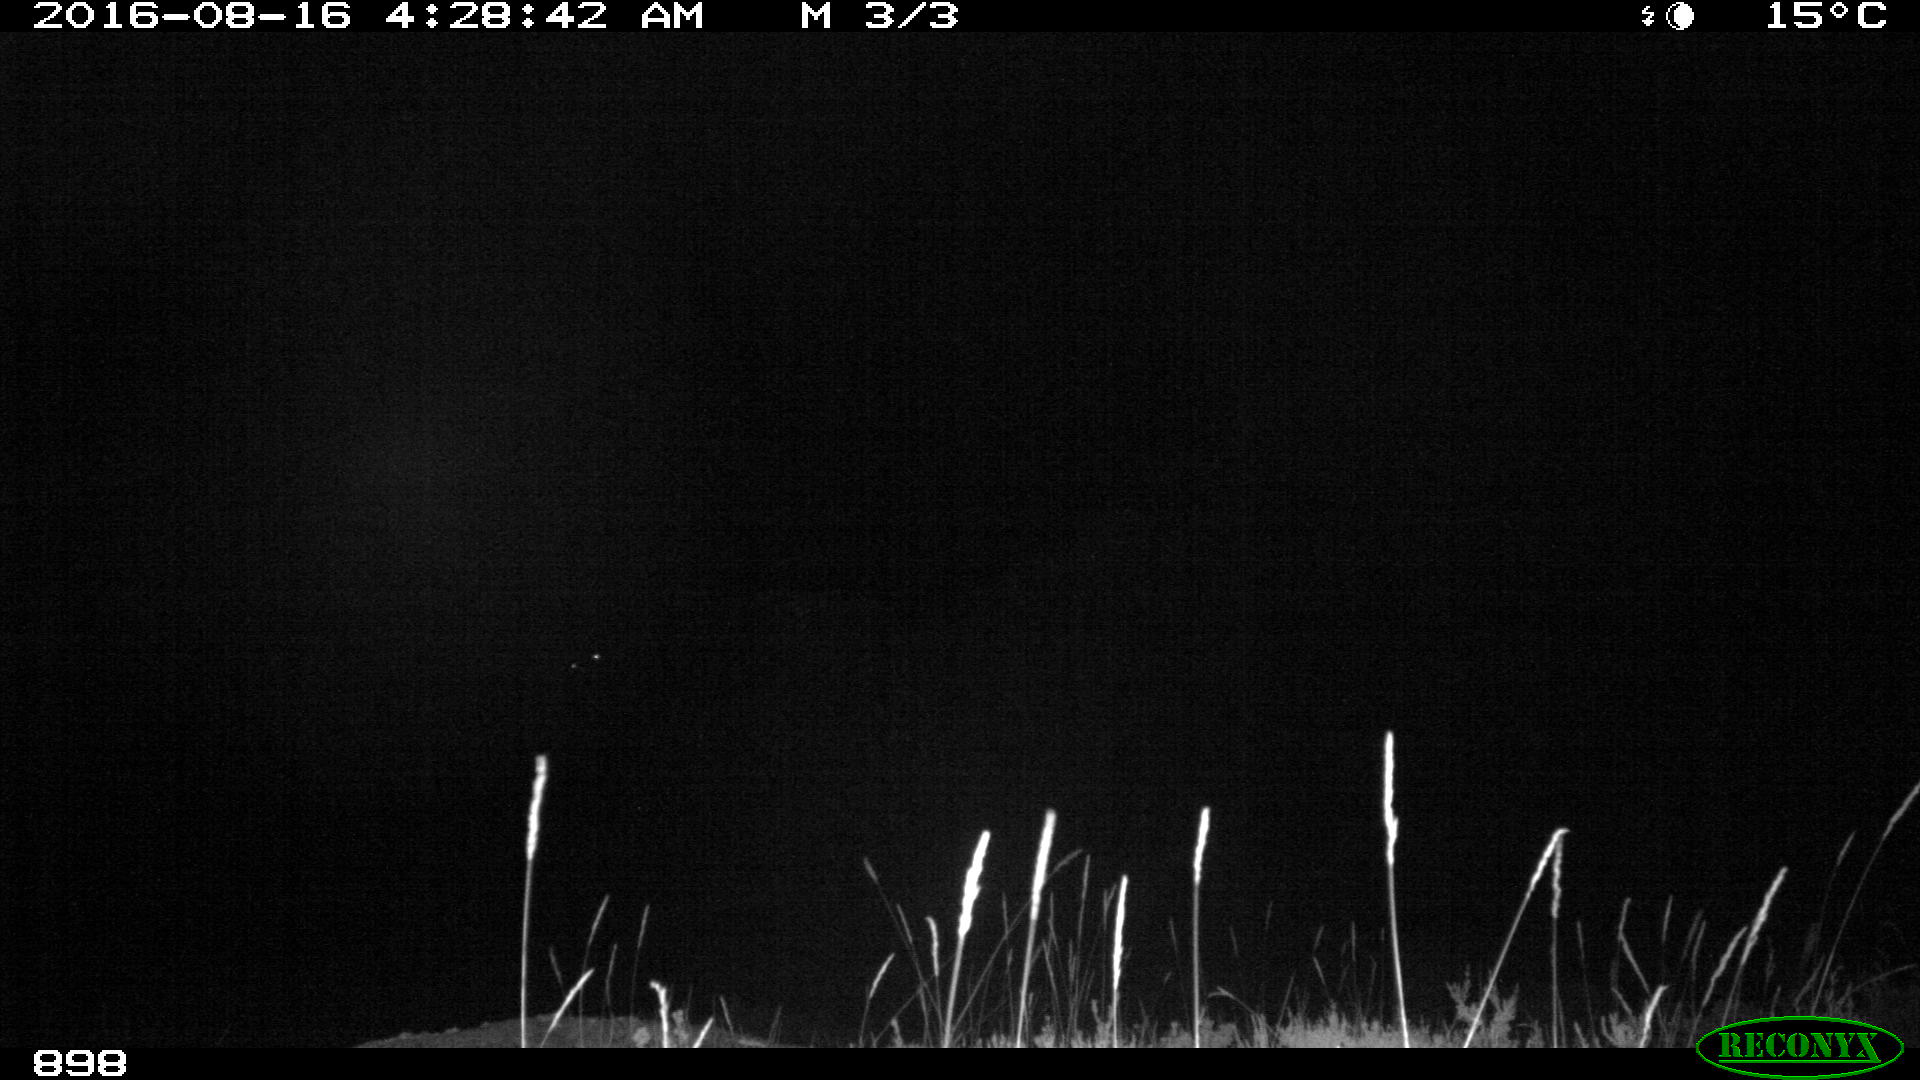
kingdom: Animalia
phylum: Chordata
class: Mammalia
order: Perissodactyla
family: Equidae
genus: Equus
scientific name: Equus caballus
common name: Horse
